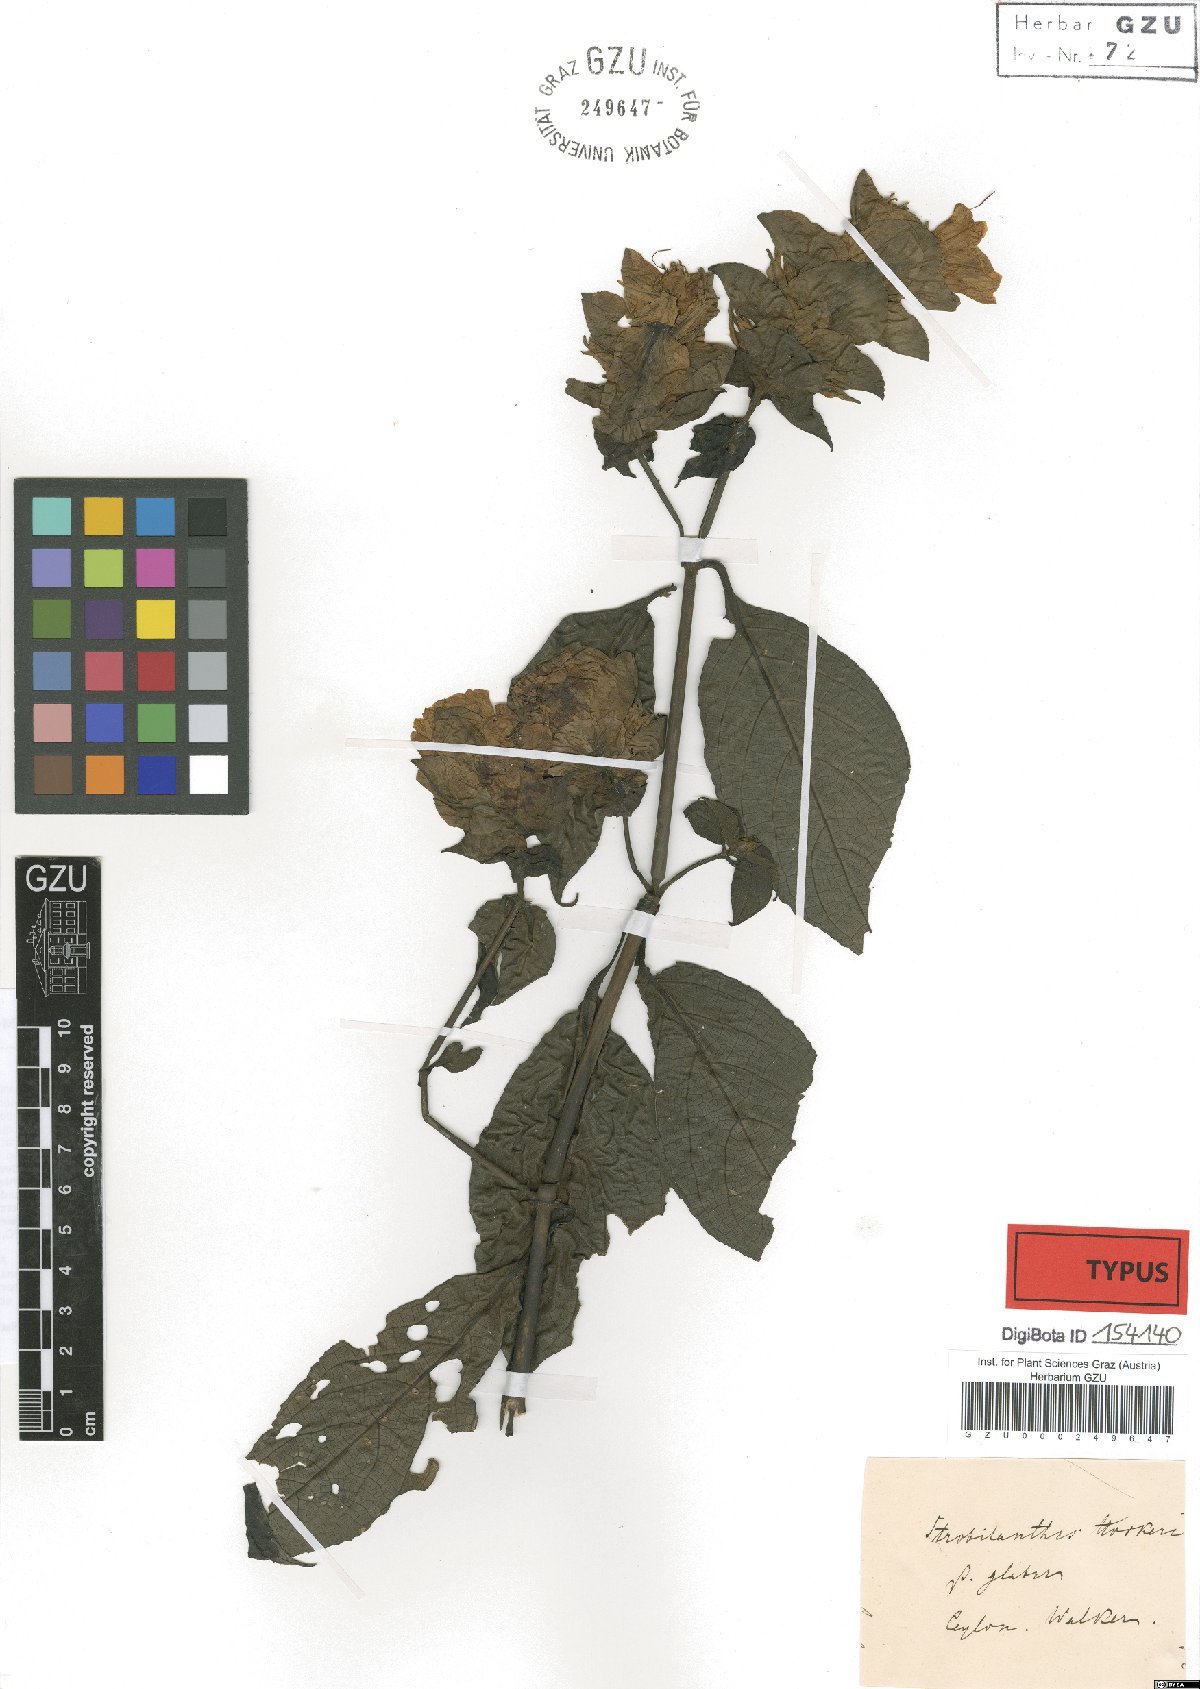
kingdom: Plantae
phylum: Tracheophyta
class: Magnoliopsida
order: Lamiales
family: Acanthaceae
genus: Strobilanthes
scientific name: Strobilanthes hookeri
